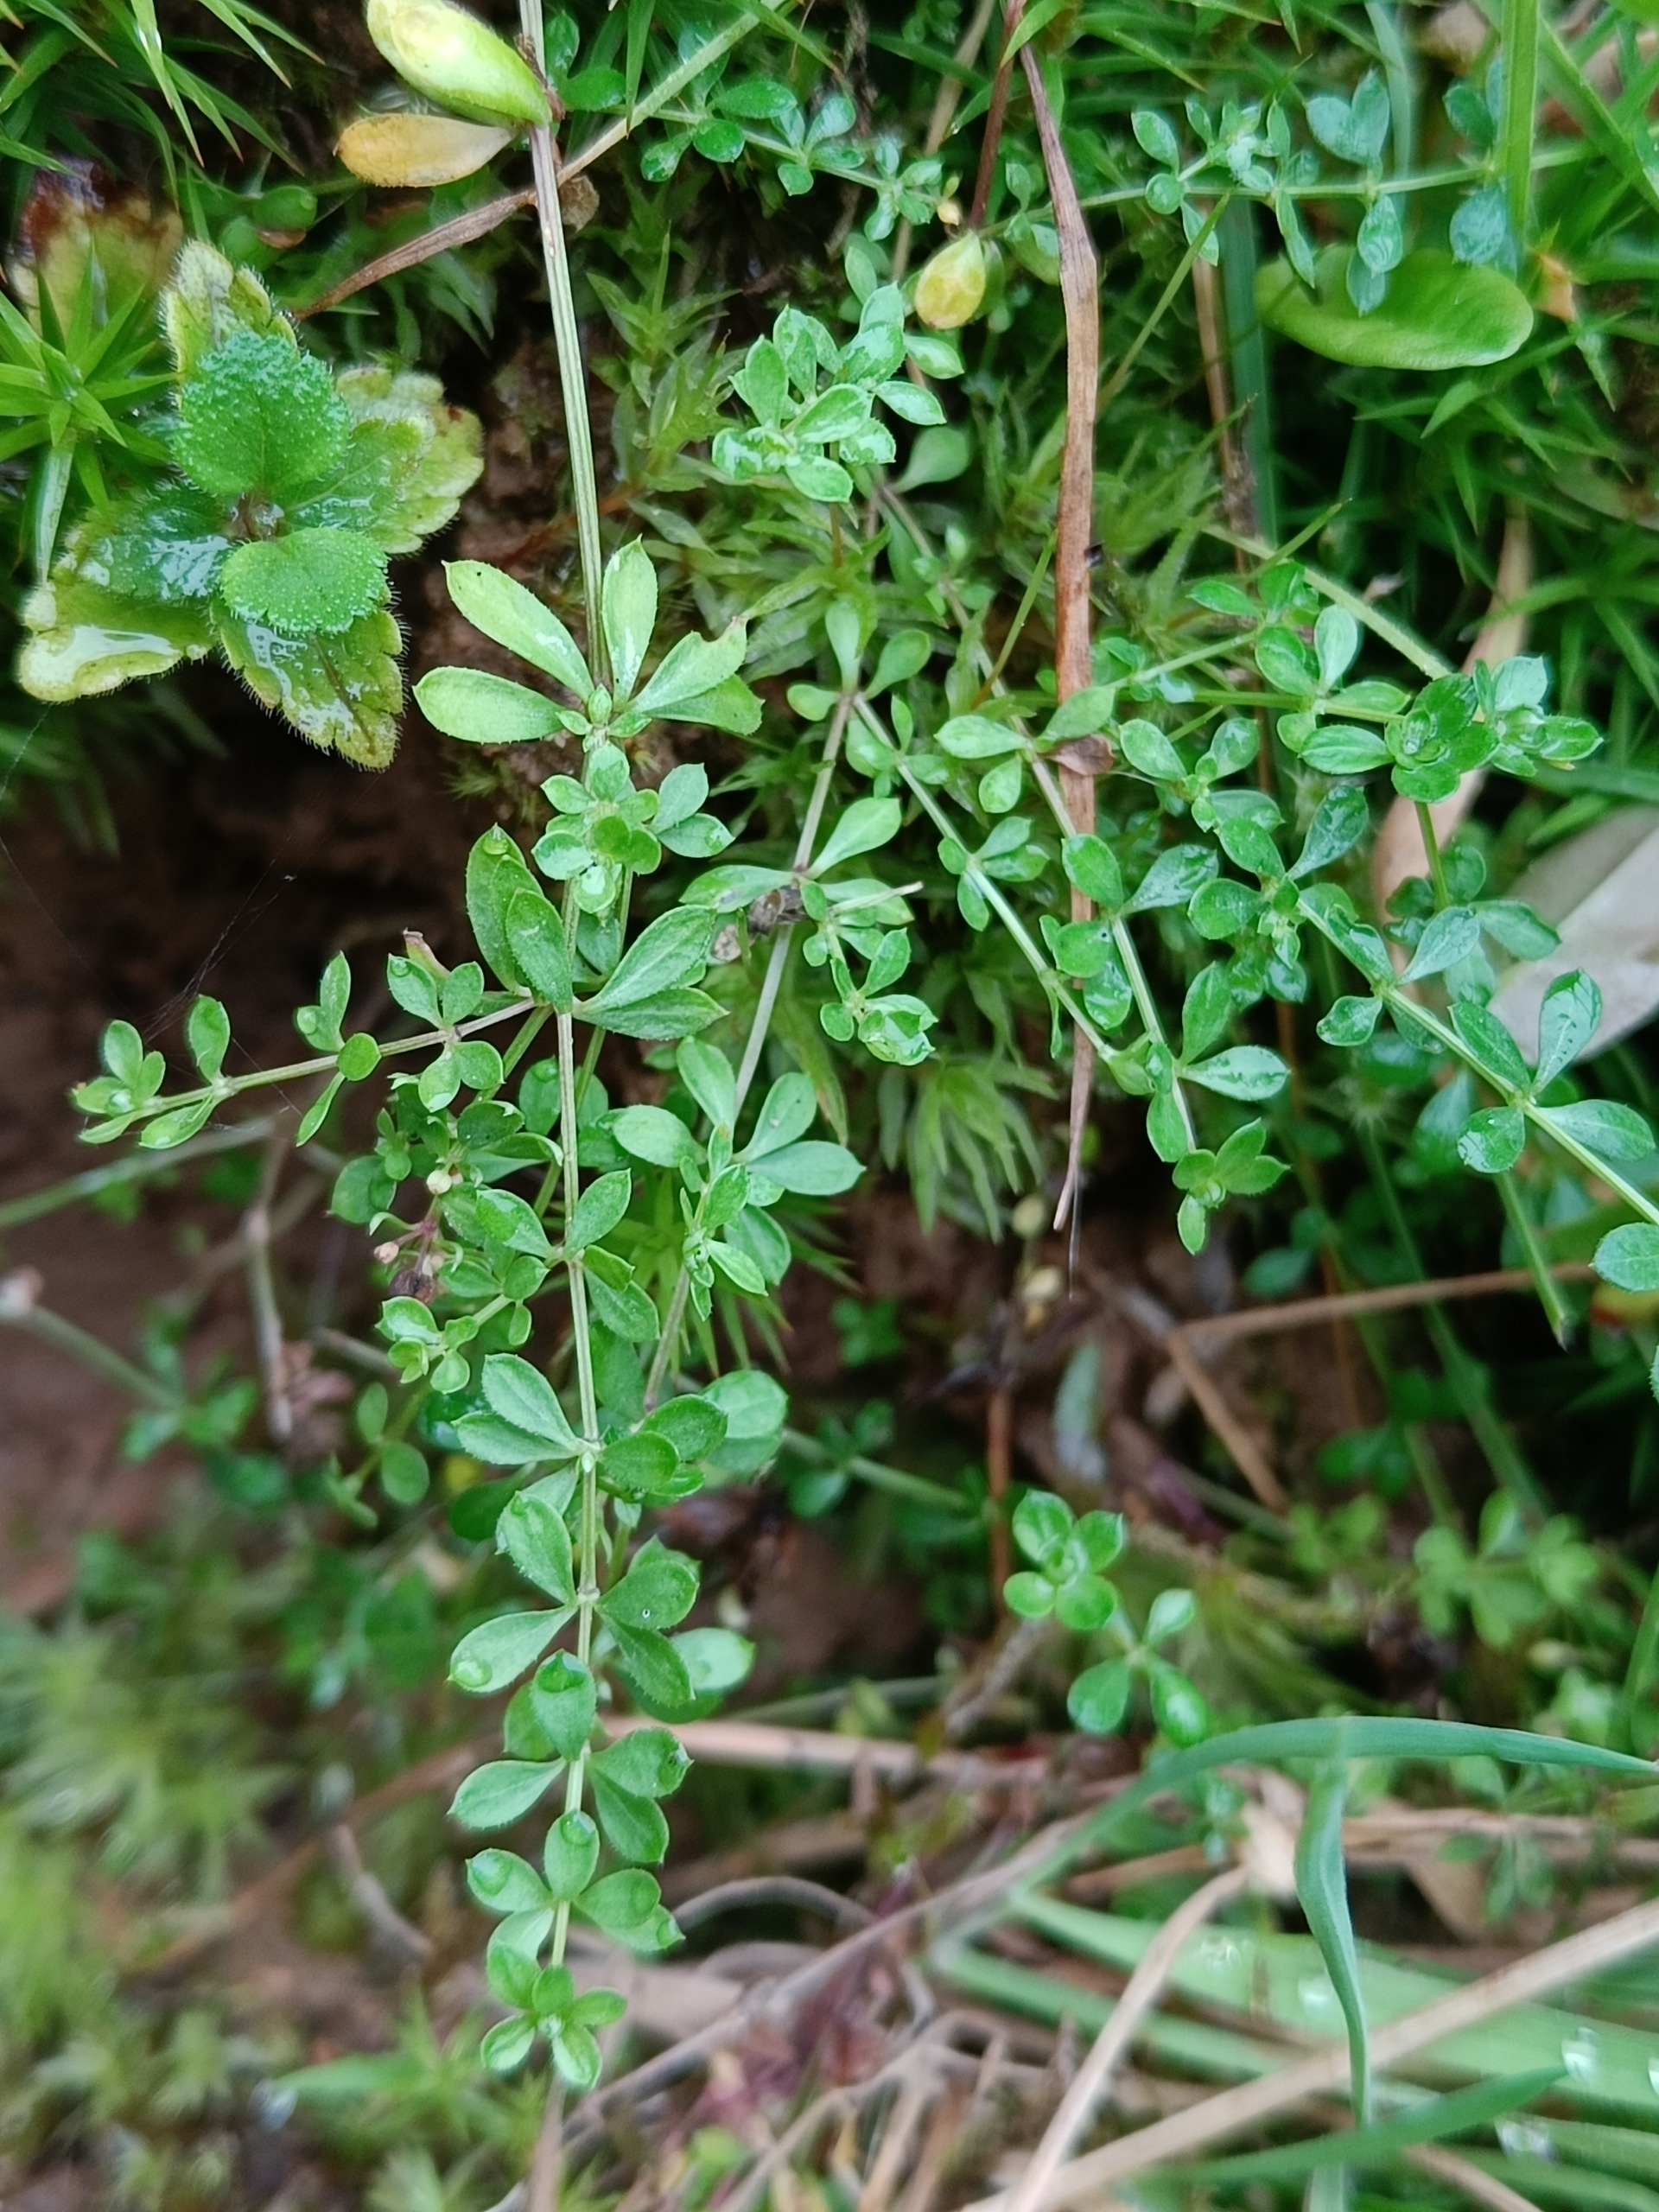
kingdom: Plantae
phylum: Tracheophyta
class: Magnoliopsida
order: Gentianales
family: Rubiaceae
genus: Galium
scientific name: Galium saxatile
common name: Lyng-snerre
